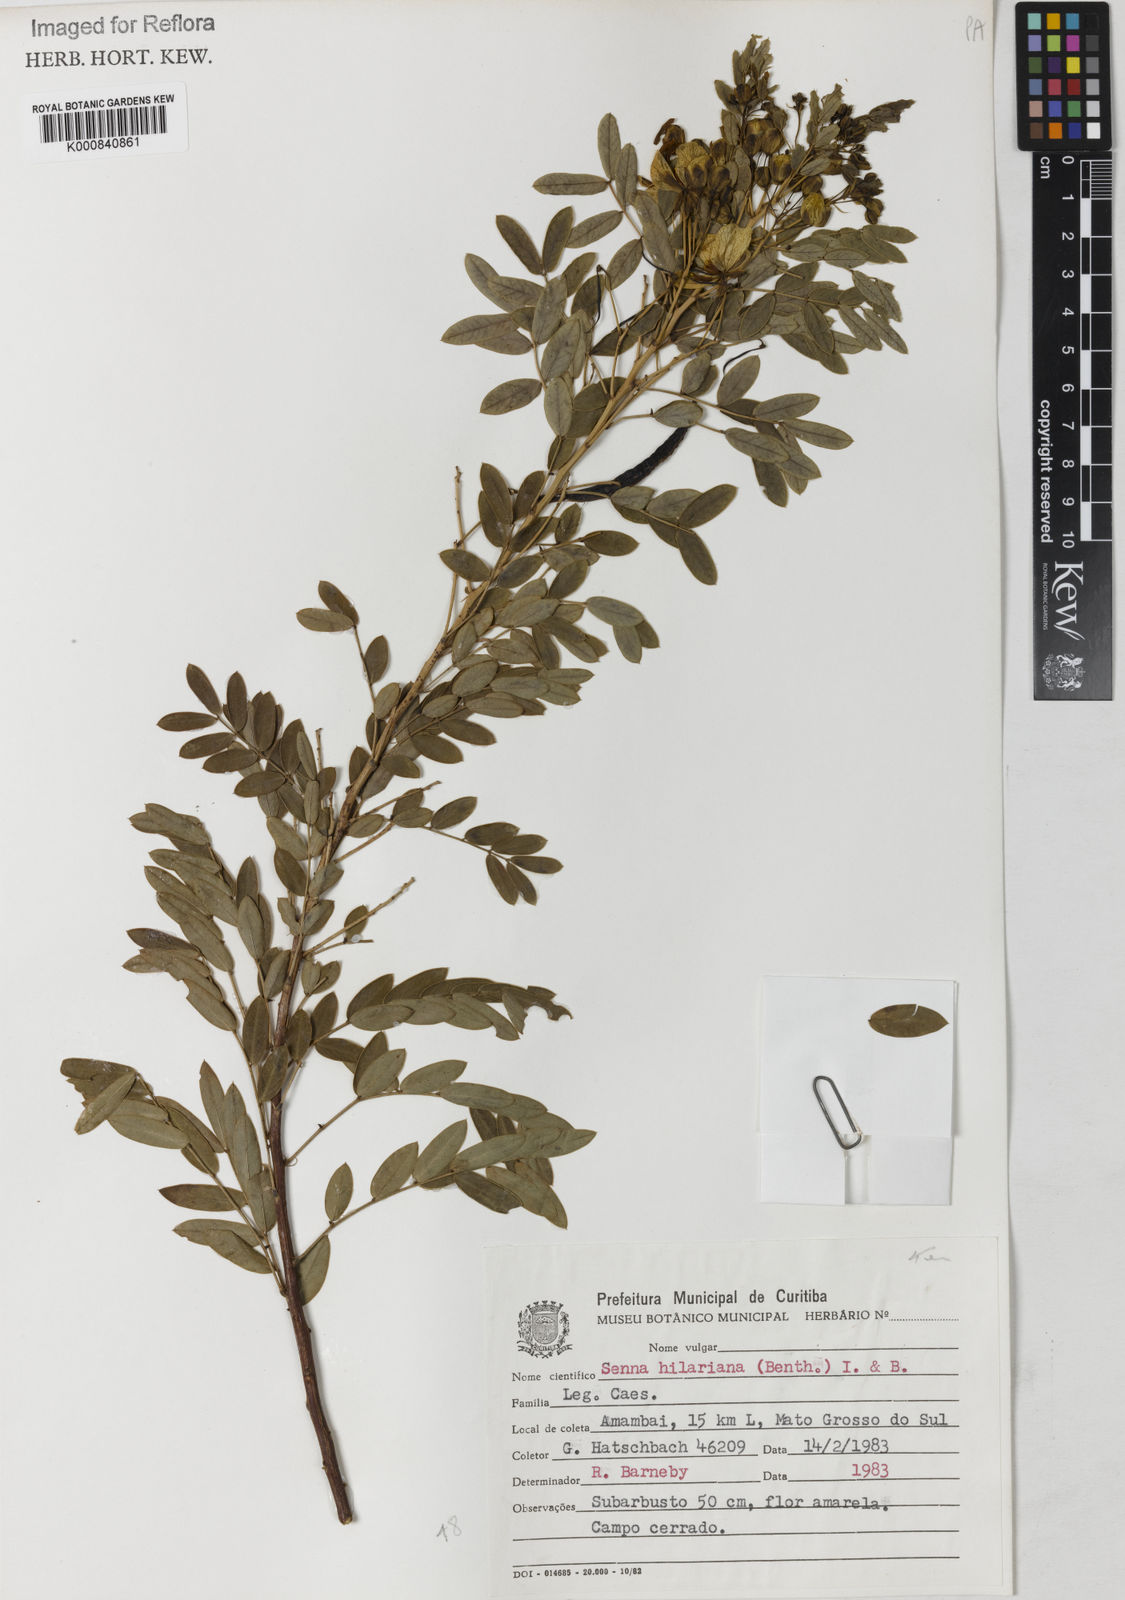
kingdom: Plantae
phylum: Tracheophyta
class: Magnoliopsida
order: Fabales
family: Fabaceae
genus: Senna
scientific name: Senna hilariana
